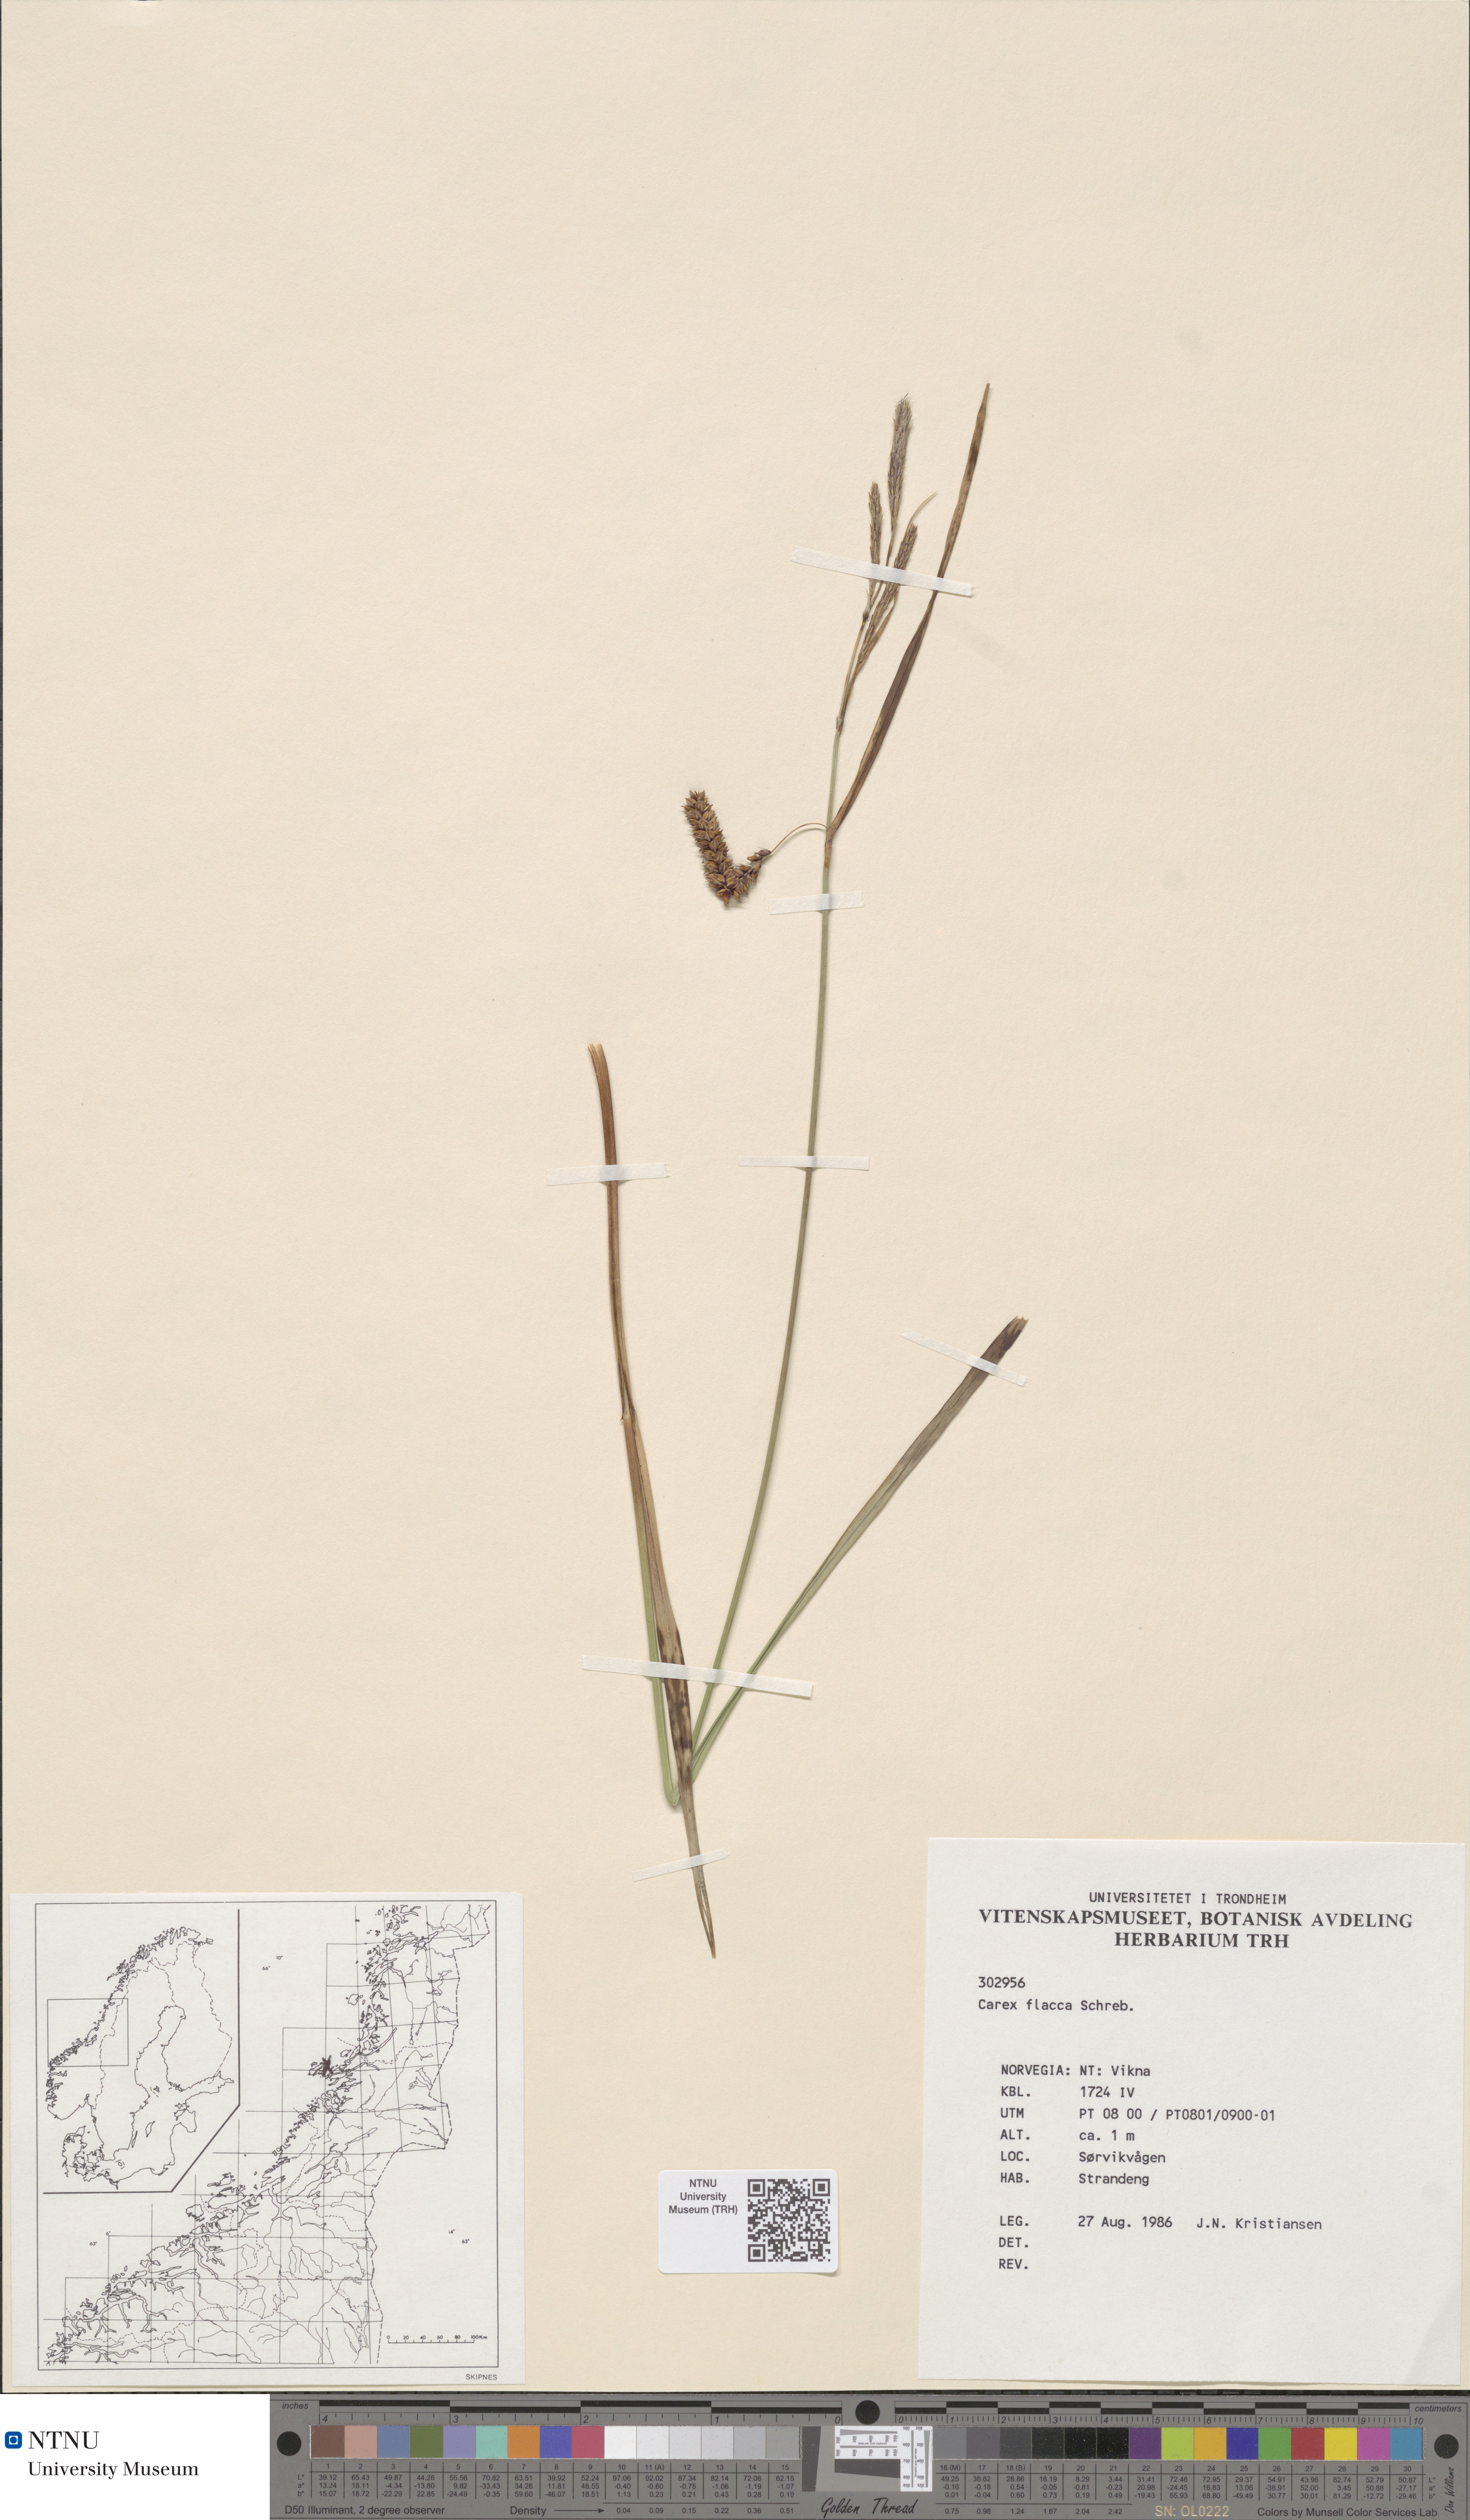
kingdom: Plantae
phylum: Tracheophyta
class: Liliopsida
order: Poales
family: Cyperaceae
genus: Carex
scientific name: Carex flacca
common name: Glaucous sedge
